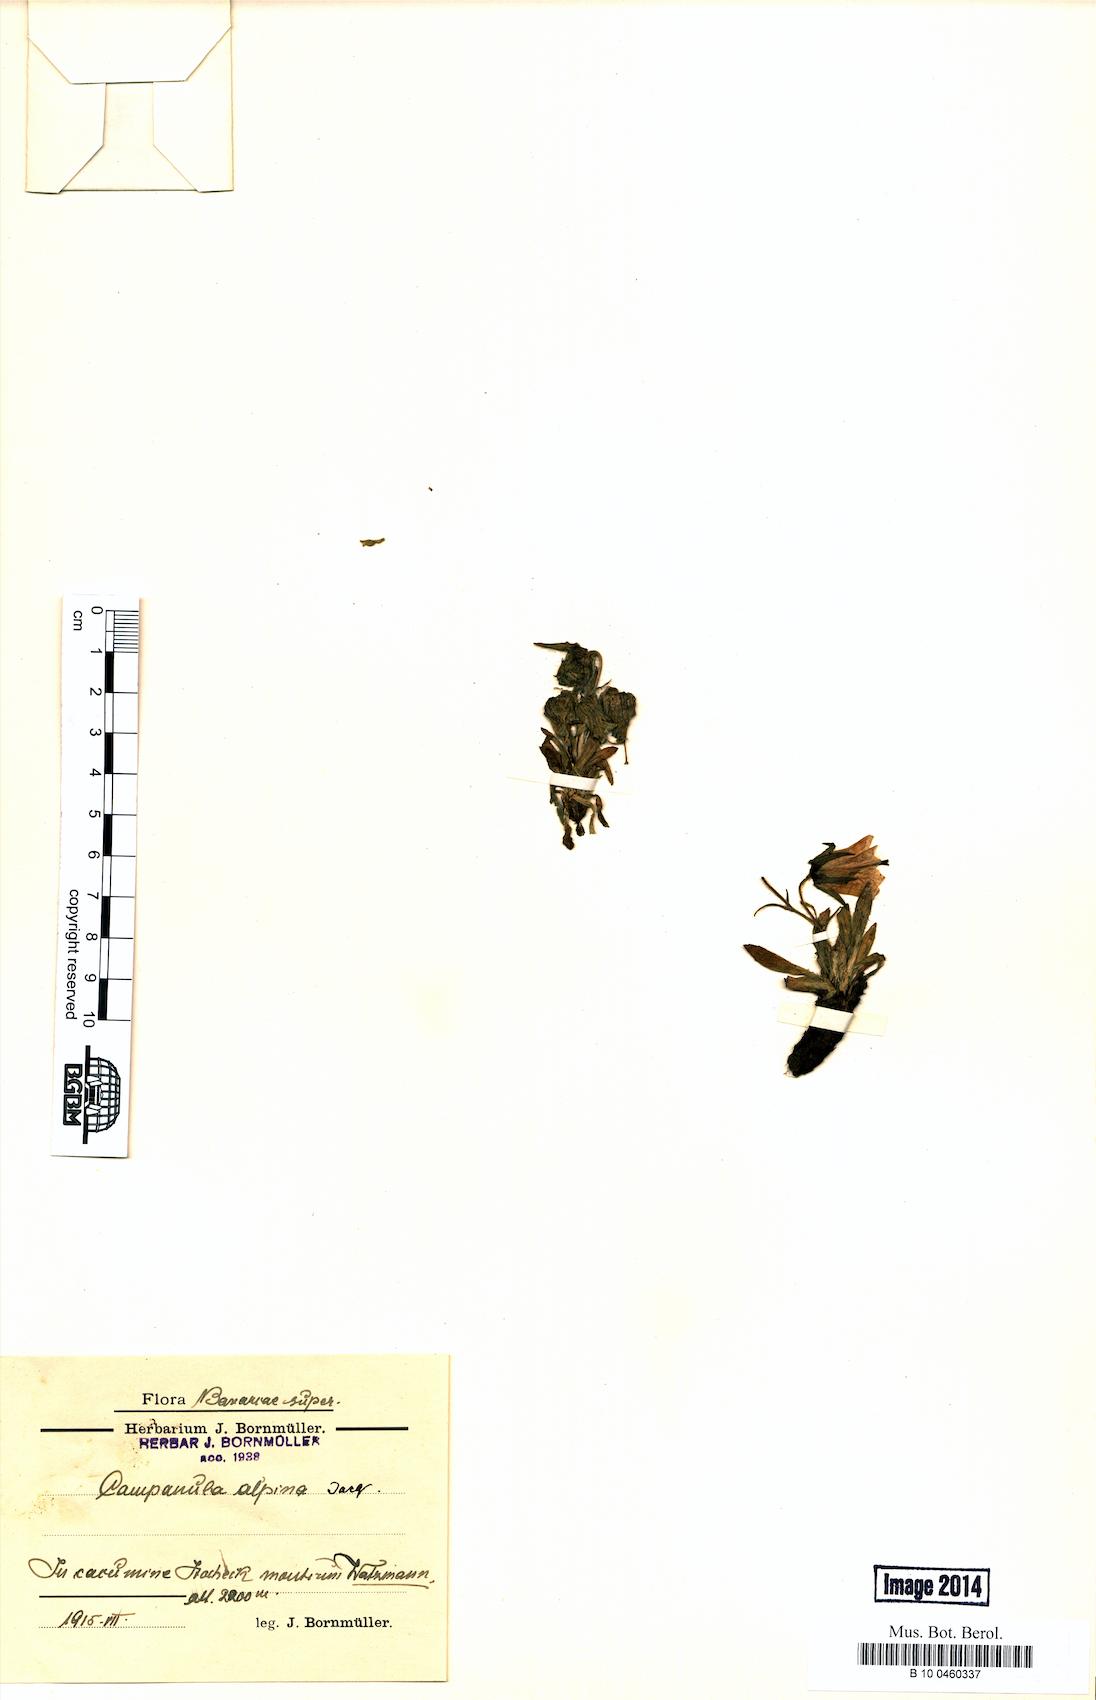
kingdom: Plantae
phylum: Tracheophyta
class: Magnoliopsida
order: Asterales
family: Campanulaceae
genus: Campanula
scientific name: Campanula alpina
